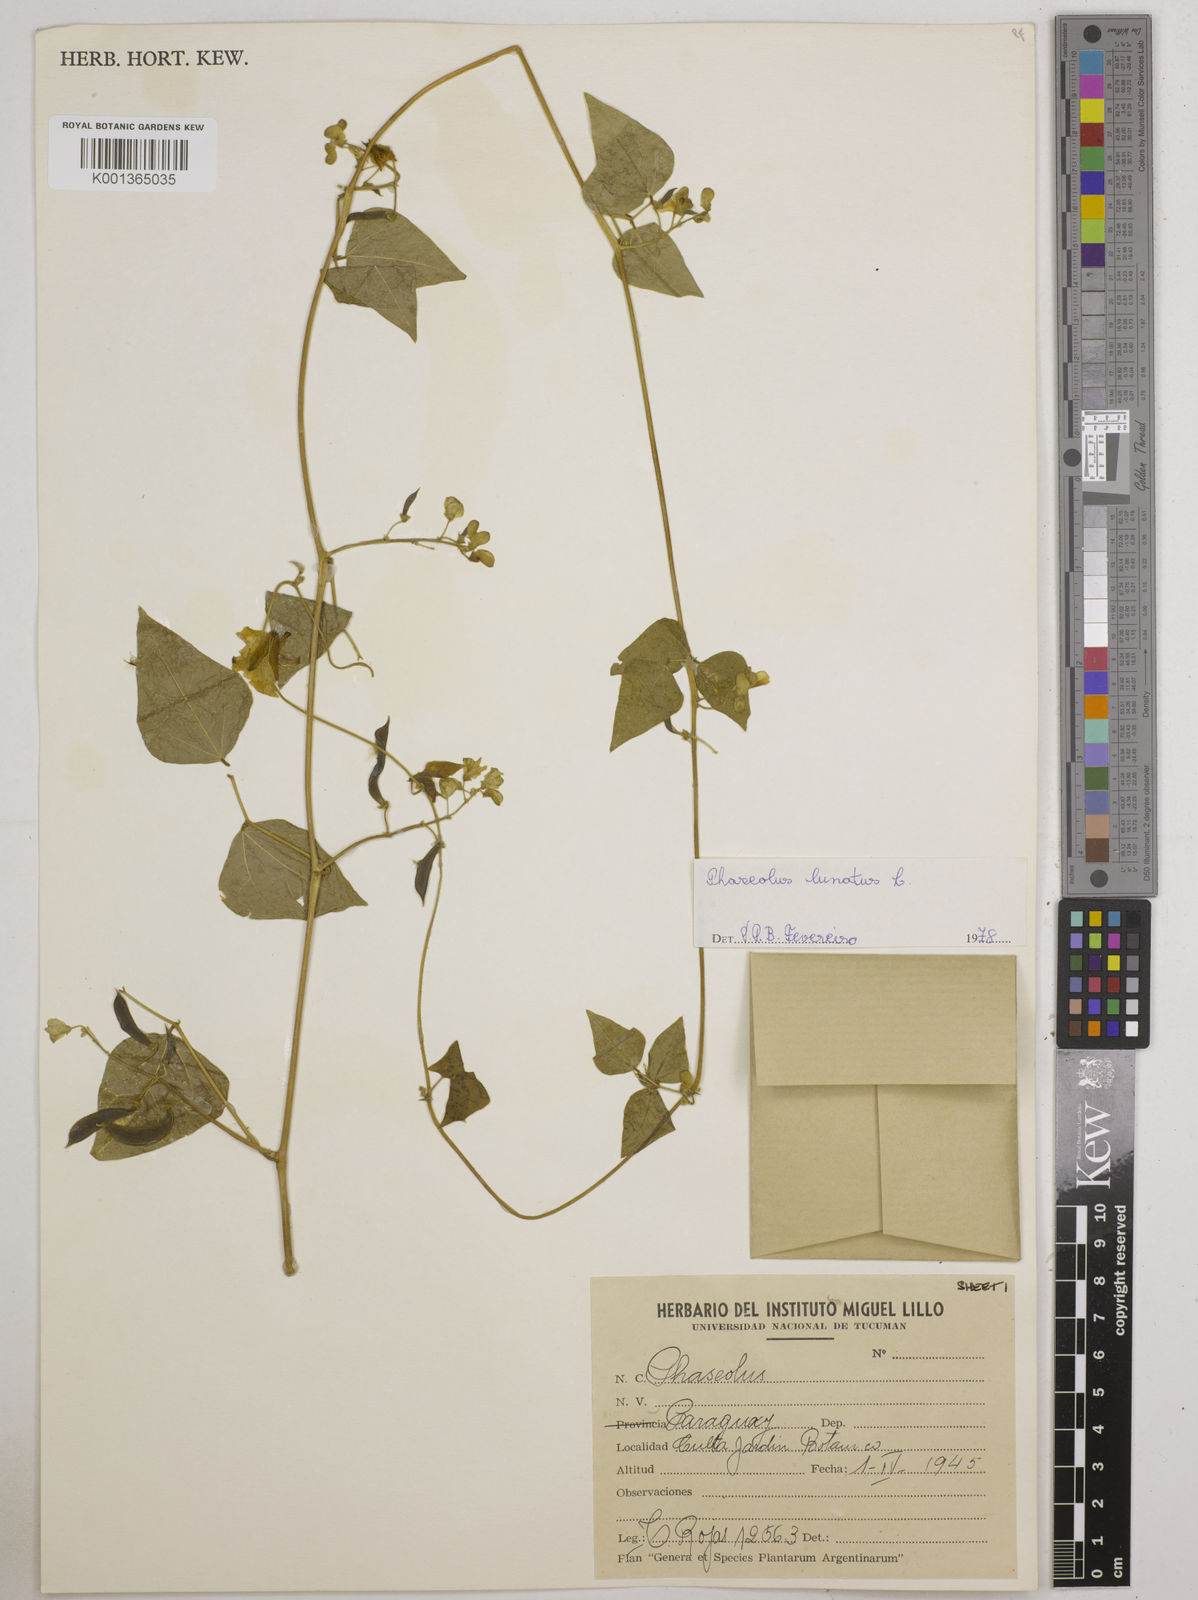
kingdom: Plantae
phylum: Tracheophyta
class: Magnoliopsida
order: Fabales
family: Fabaceae
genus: Phaseolus
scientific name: Phaseolus lunatus
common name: Sieva bean
